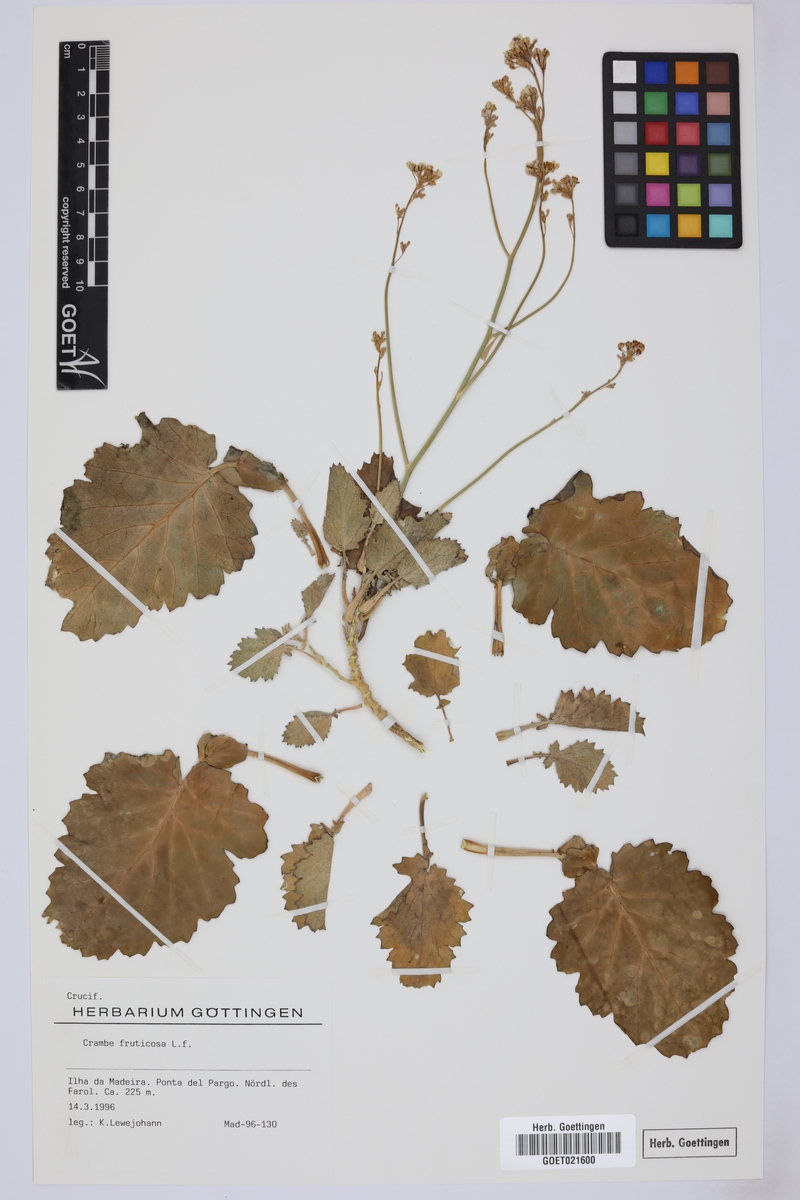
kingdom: Plantae
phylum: Tracheophyta
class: Magnoliopsida
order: Brassicales
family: Brassicaceae
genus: Crambe
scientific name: Crambe fruticosa
